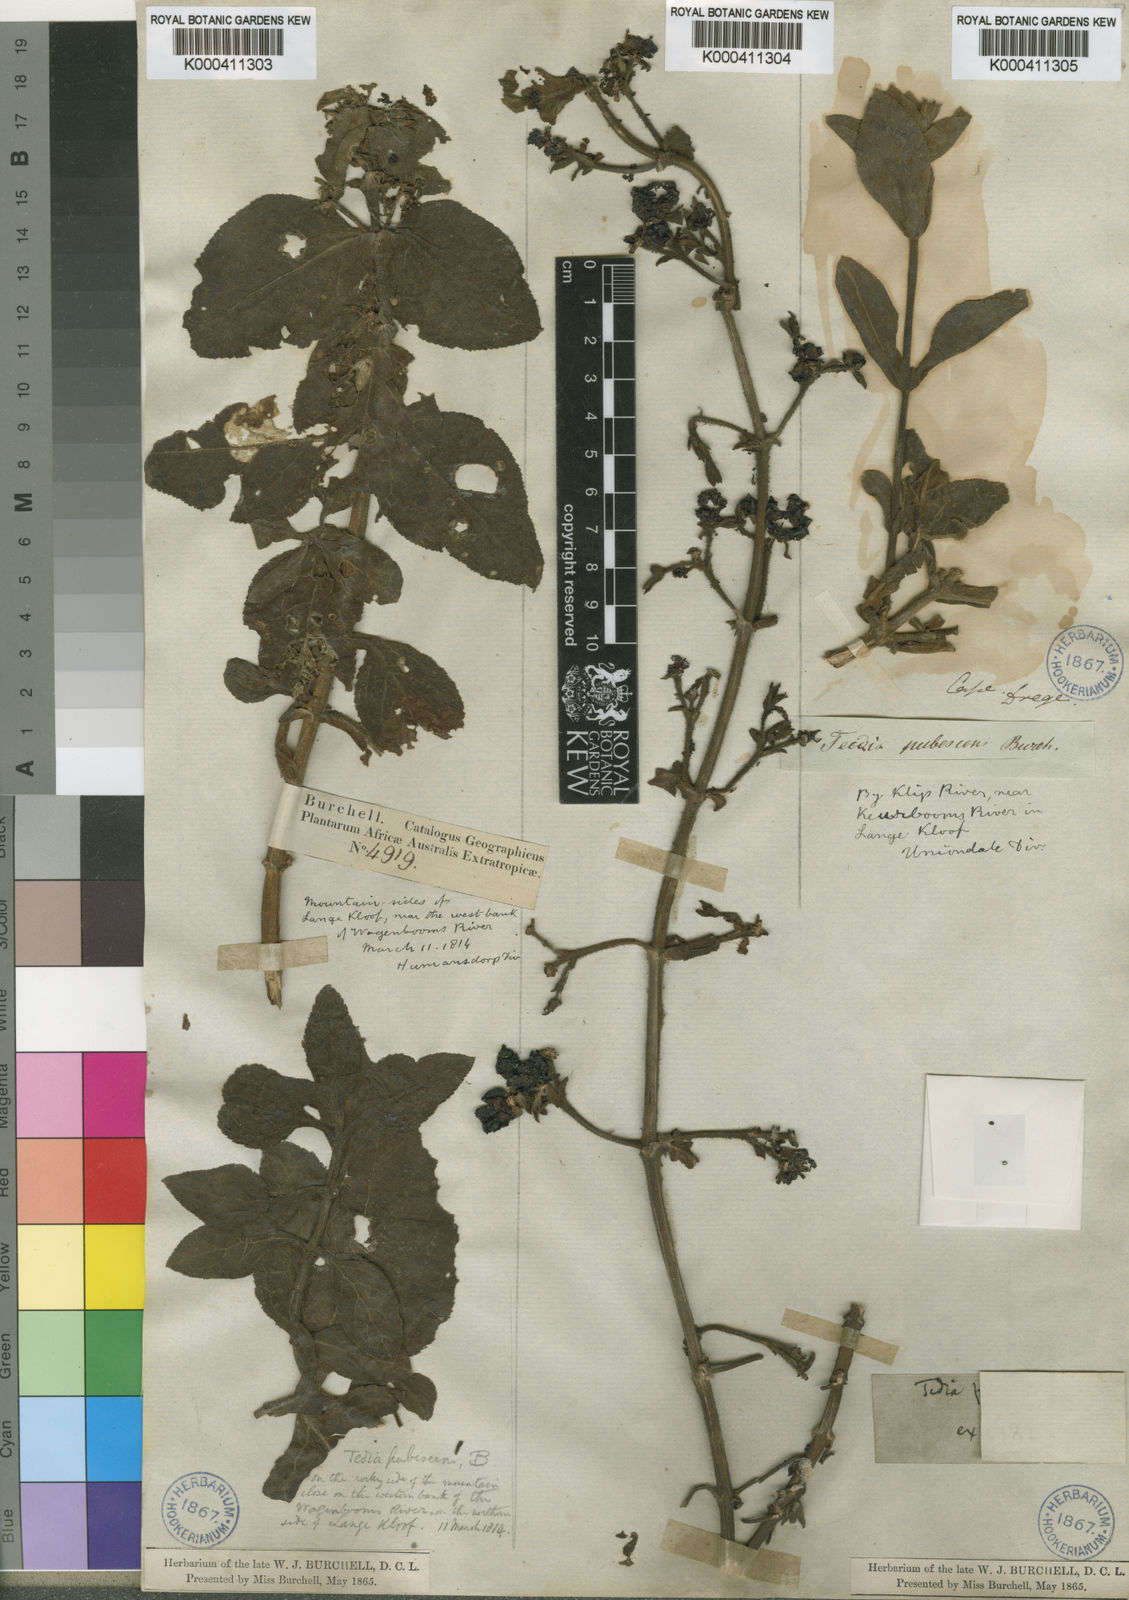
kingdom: Plantae
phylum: Tracheophyta
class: Magnoliopsida
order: Lamiales
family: Scrophulariaceae
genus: Teedia
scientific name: Teedia pubescens
